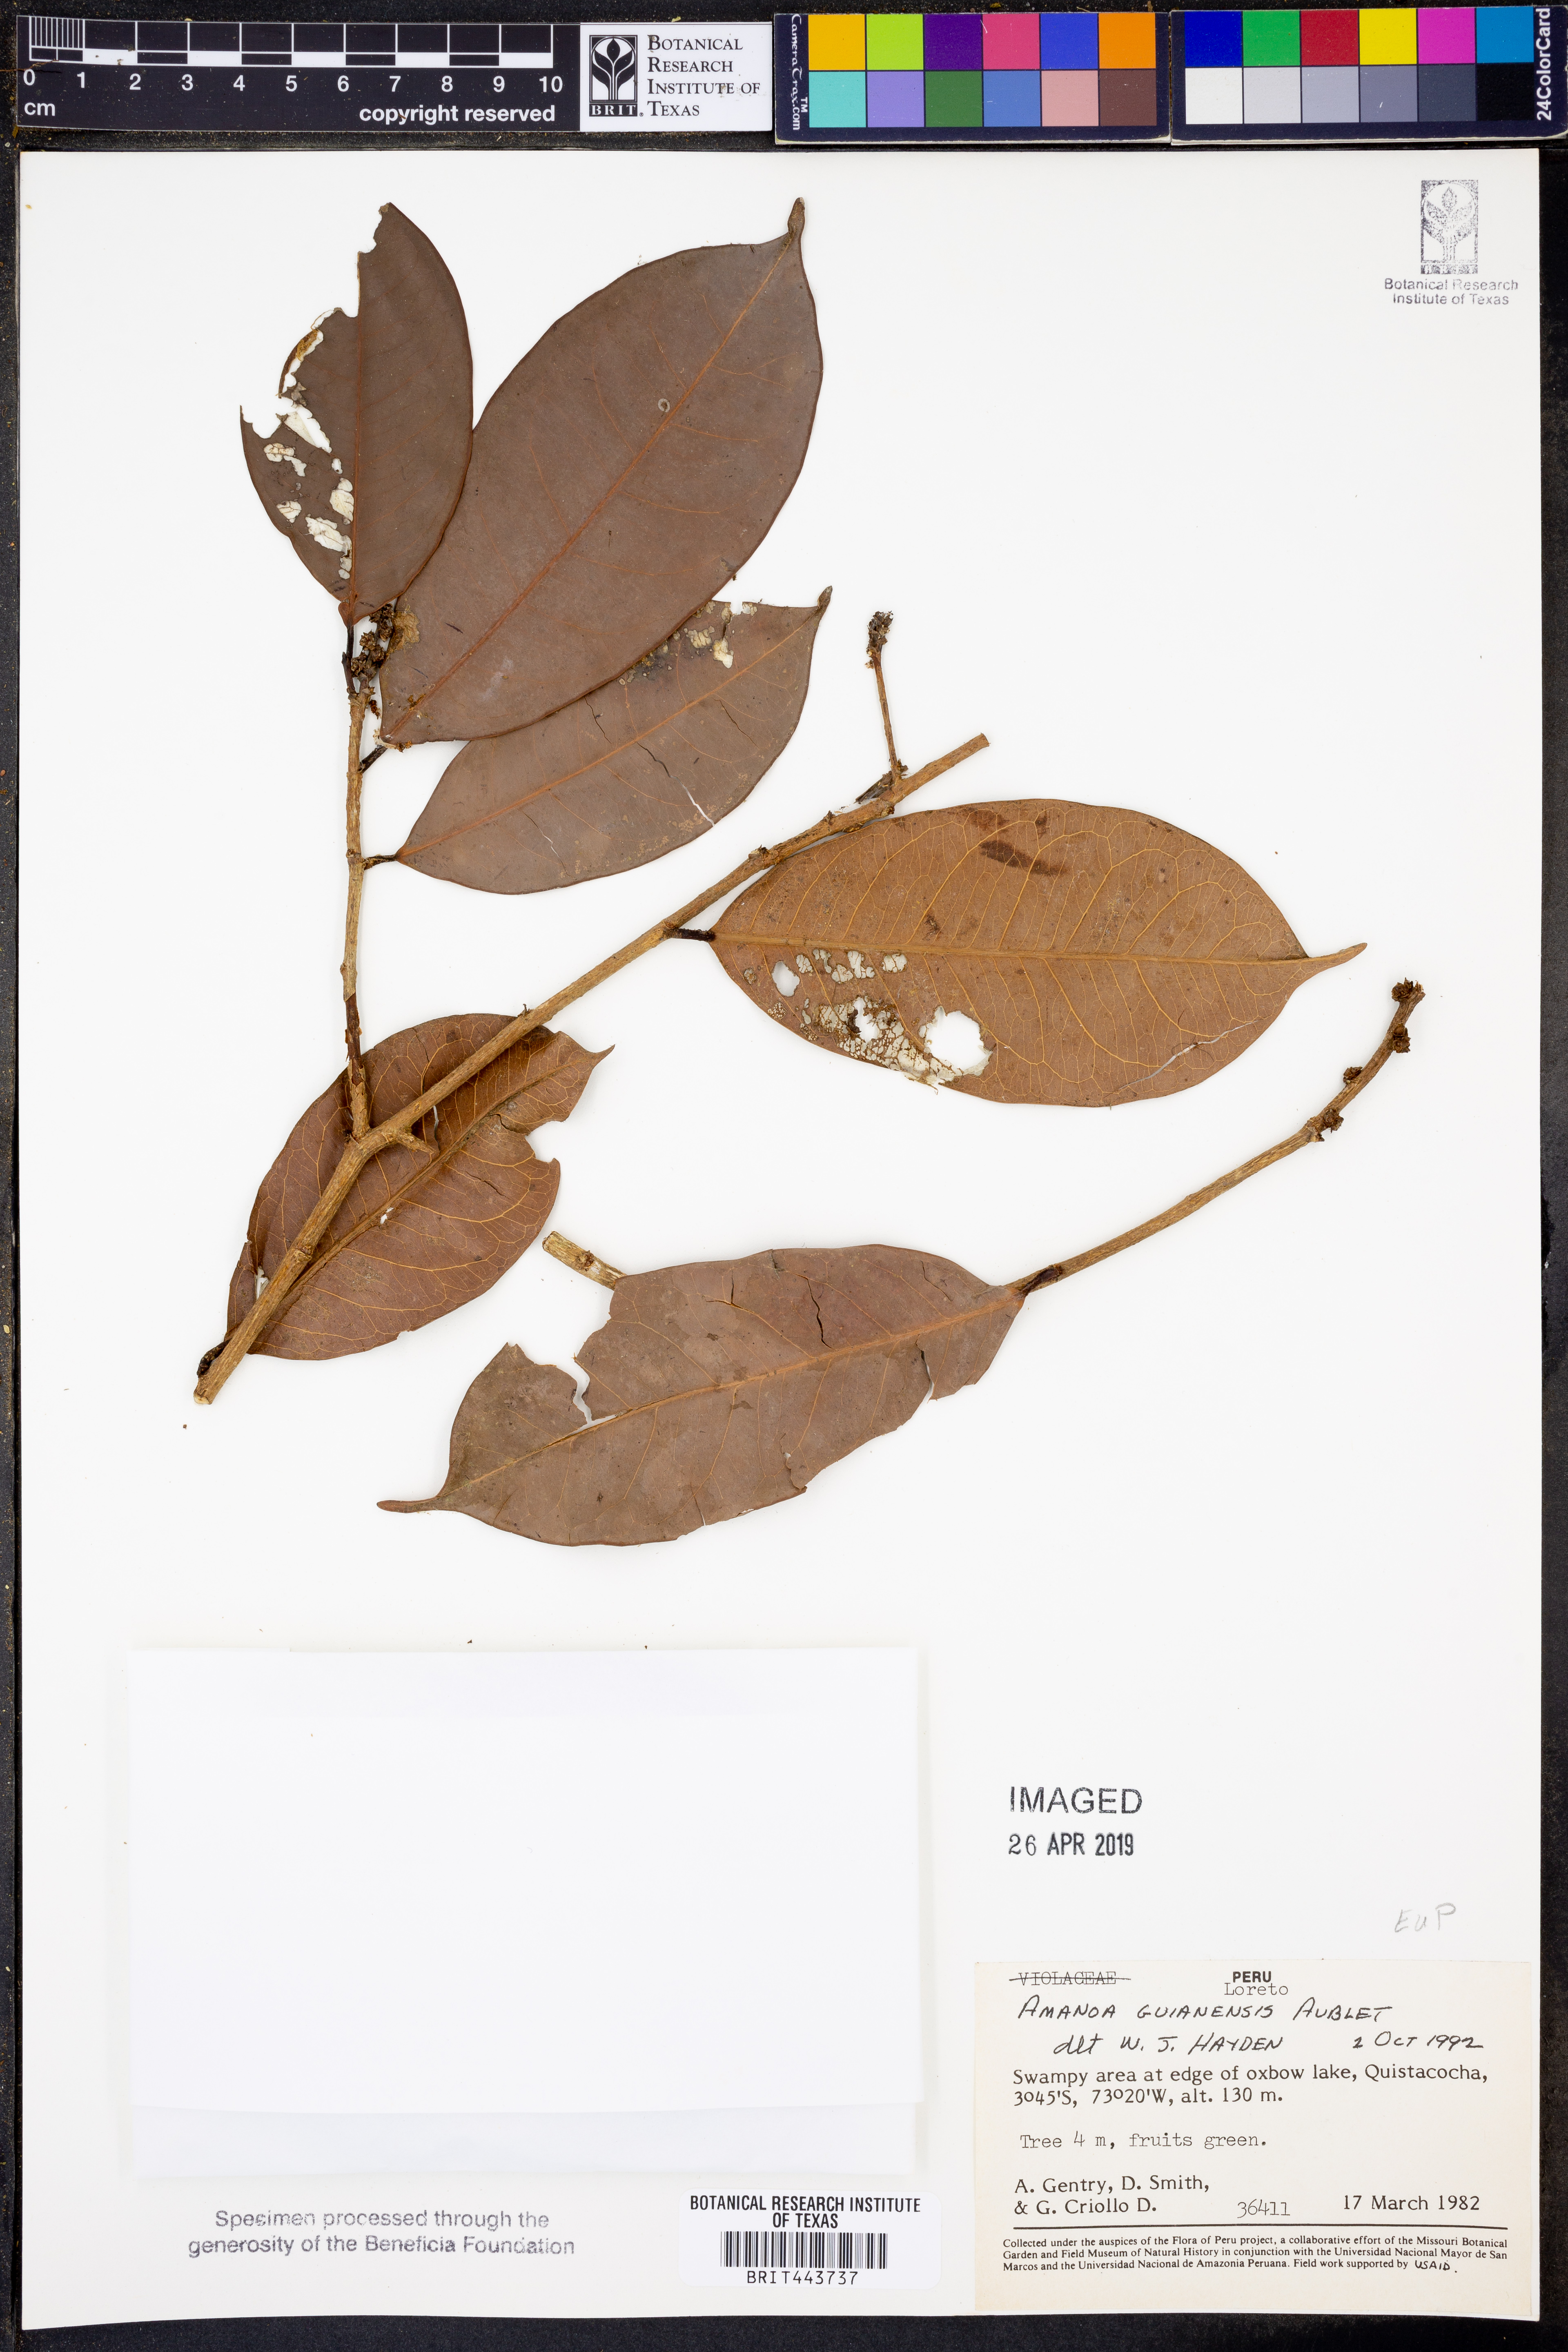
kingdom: Plantae
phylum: Tracheophyta
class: Magnoliopsida
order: Malpighiales
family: Phyllanthaceae
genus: Amanoa
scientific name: Amanoa guianensis
